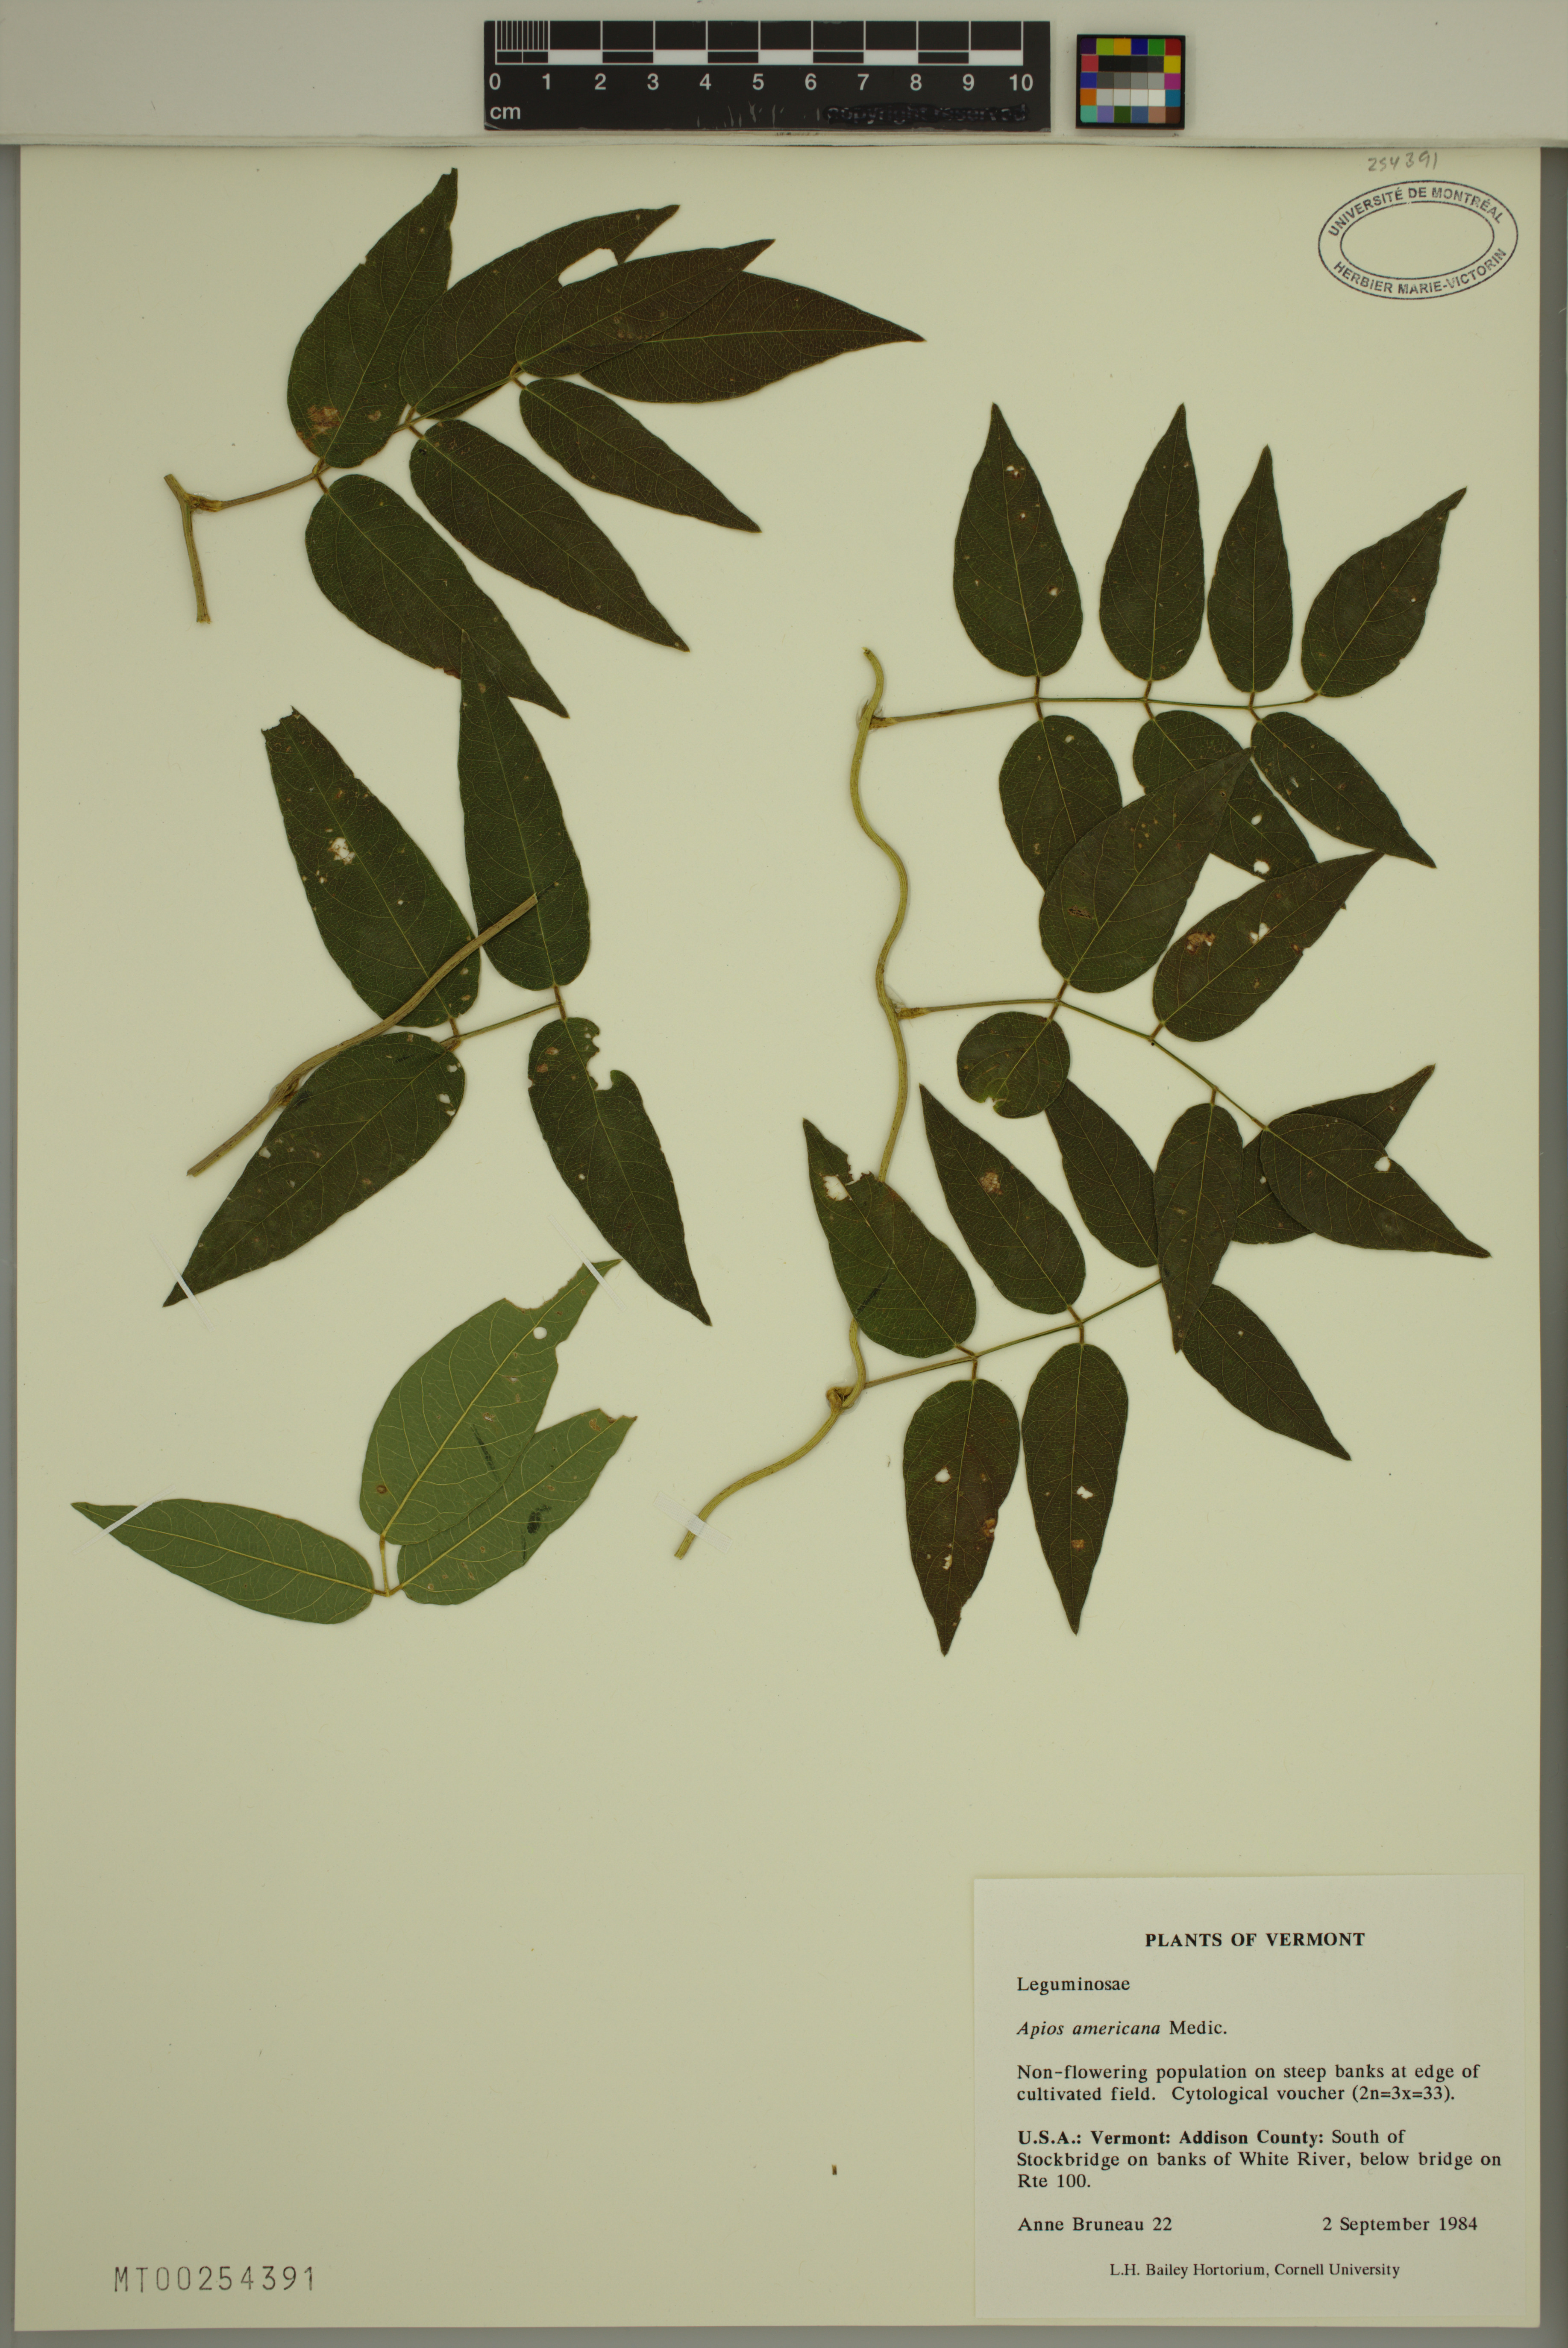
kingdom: Plantae
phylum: Tracheophyta
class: Magnoliopsida
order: Fabales
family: Fabaceae
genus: Apios
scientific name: Apios americana
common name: American potato-bean
